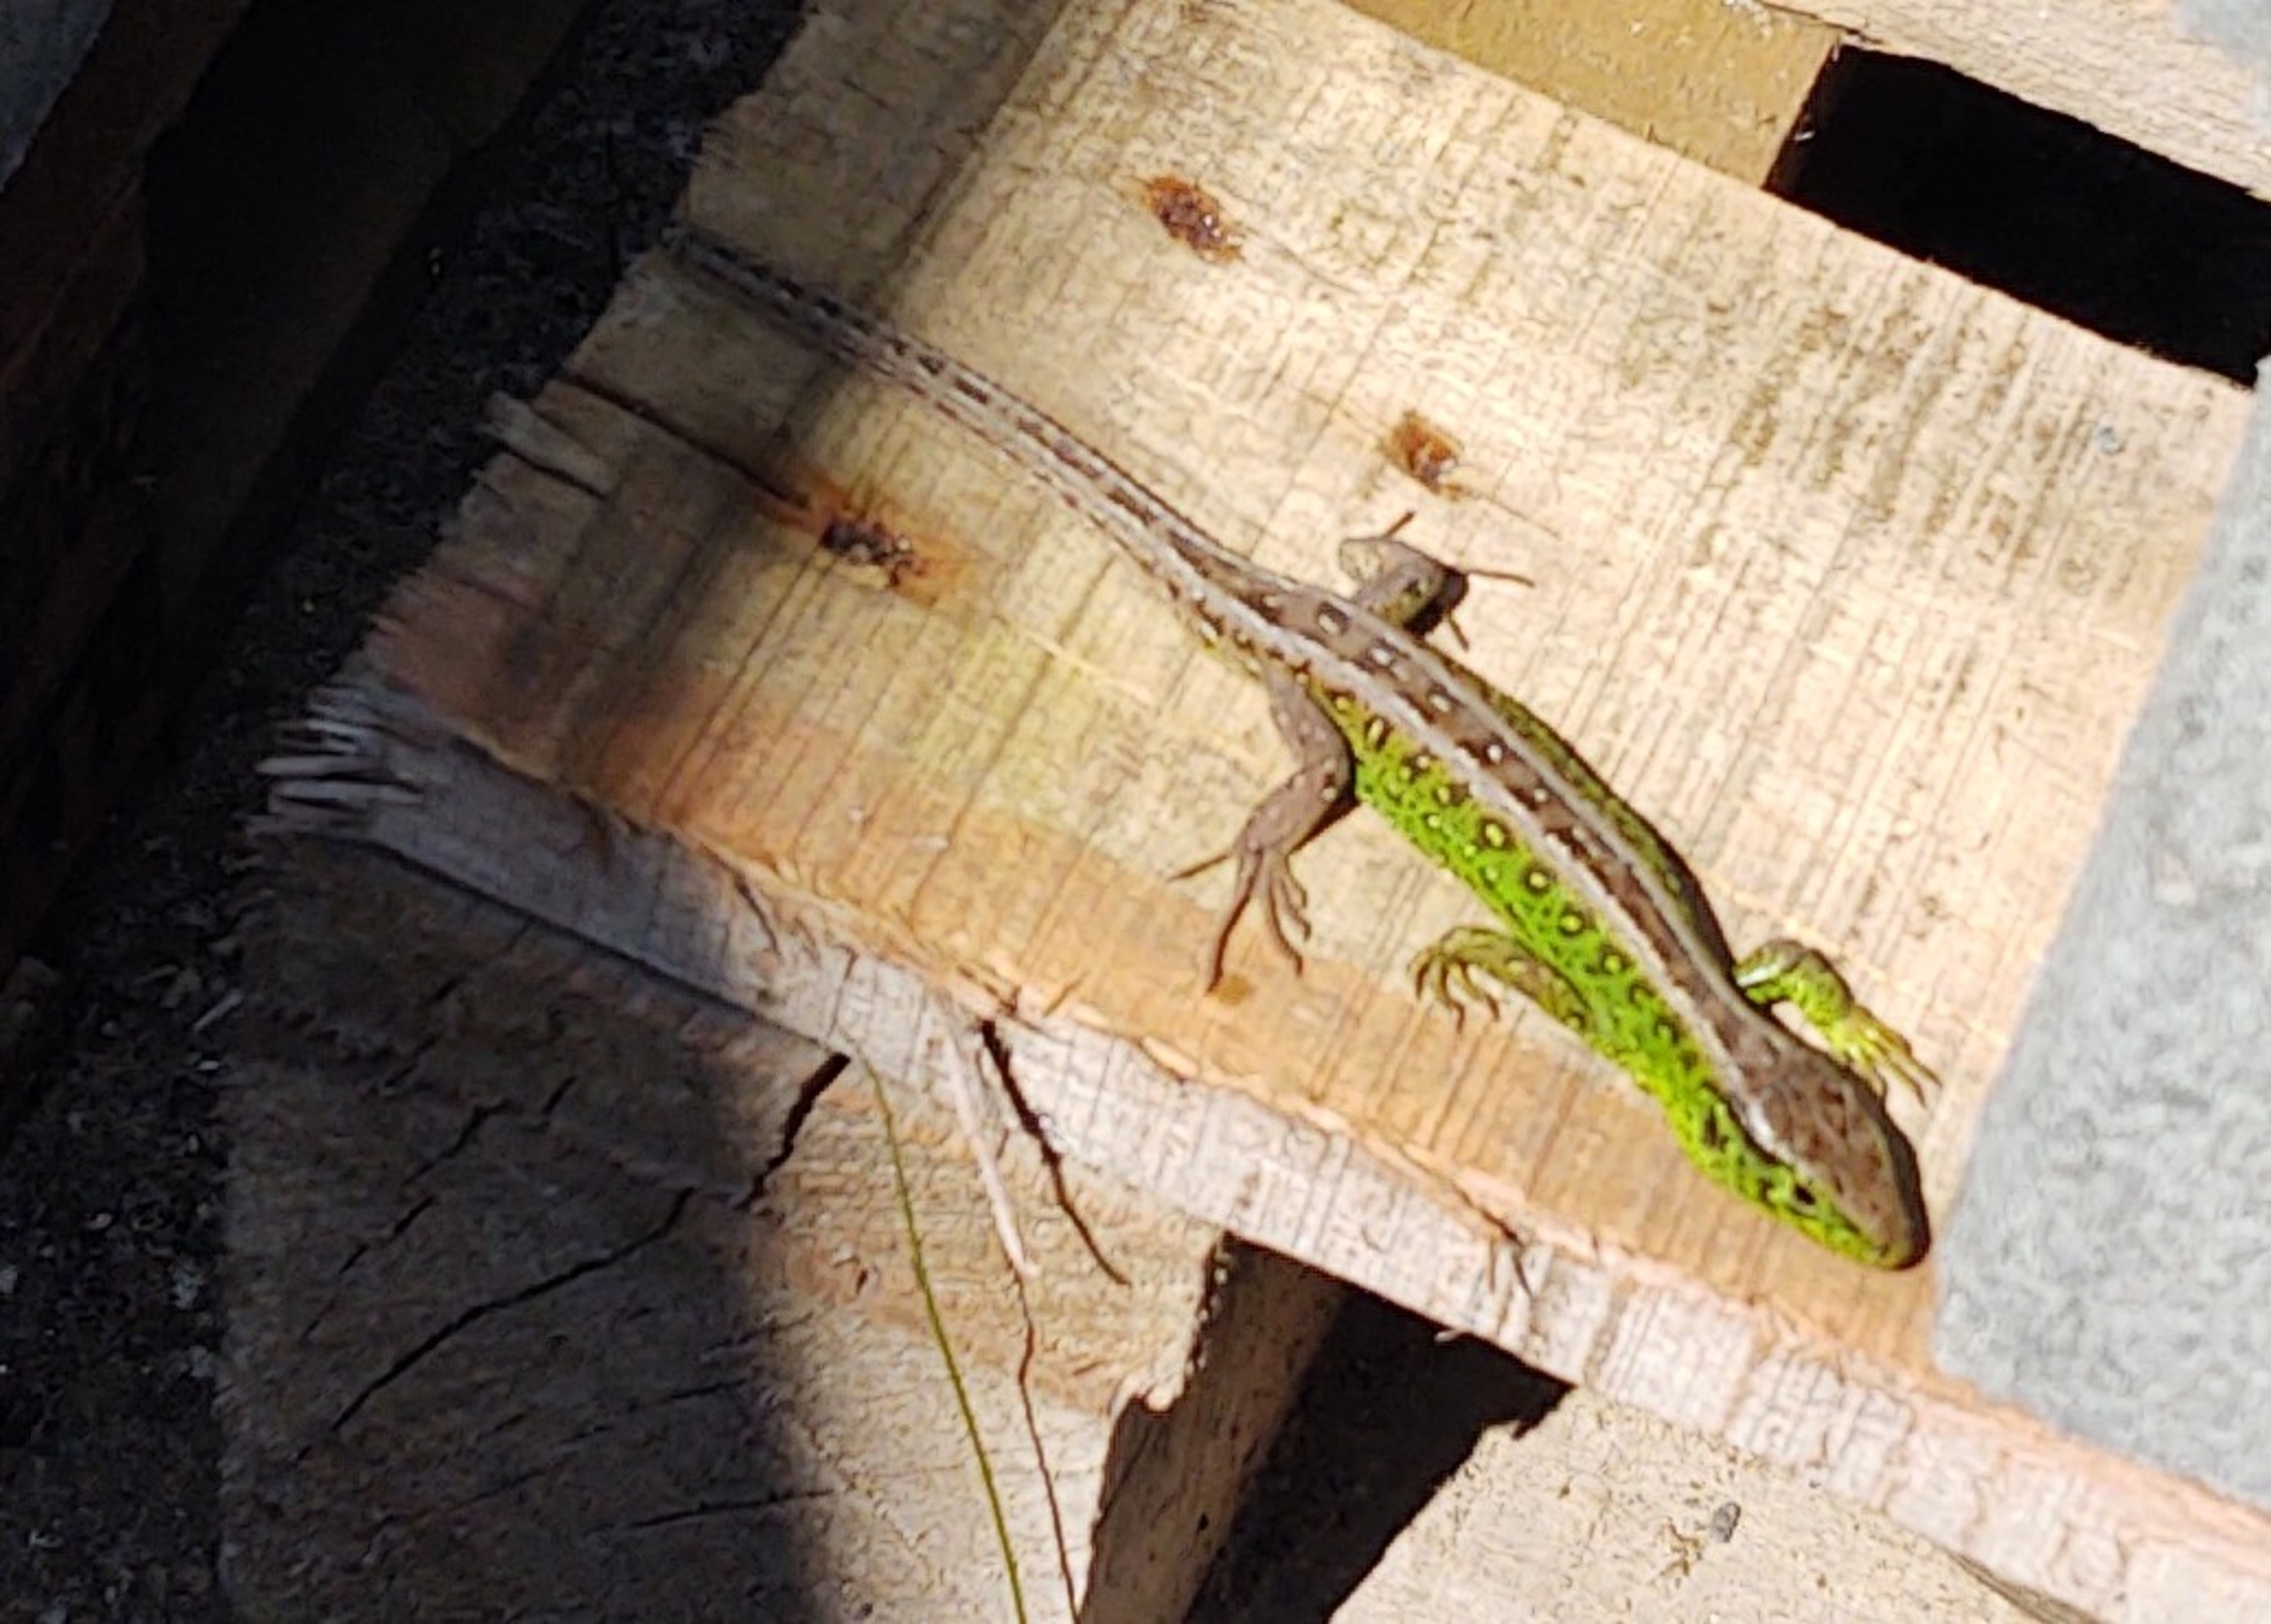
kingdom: Animalia
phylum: Chordata
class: Squamata
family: Lacertidae
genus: Lacerta
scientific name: Lacerta agilis
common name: Markfirben
